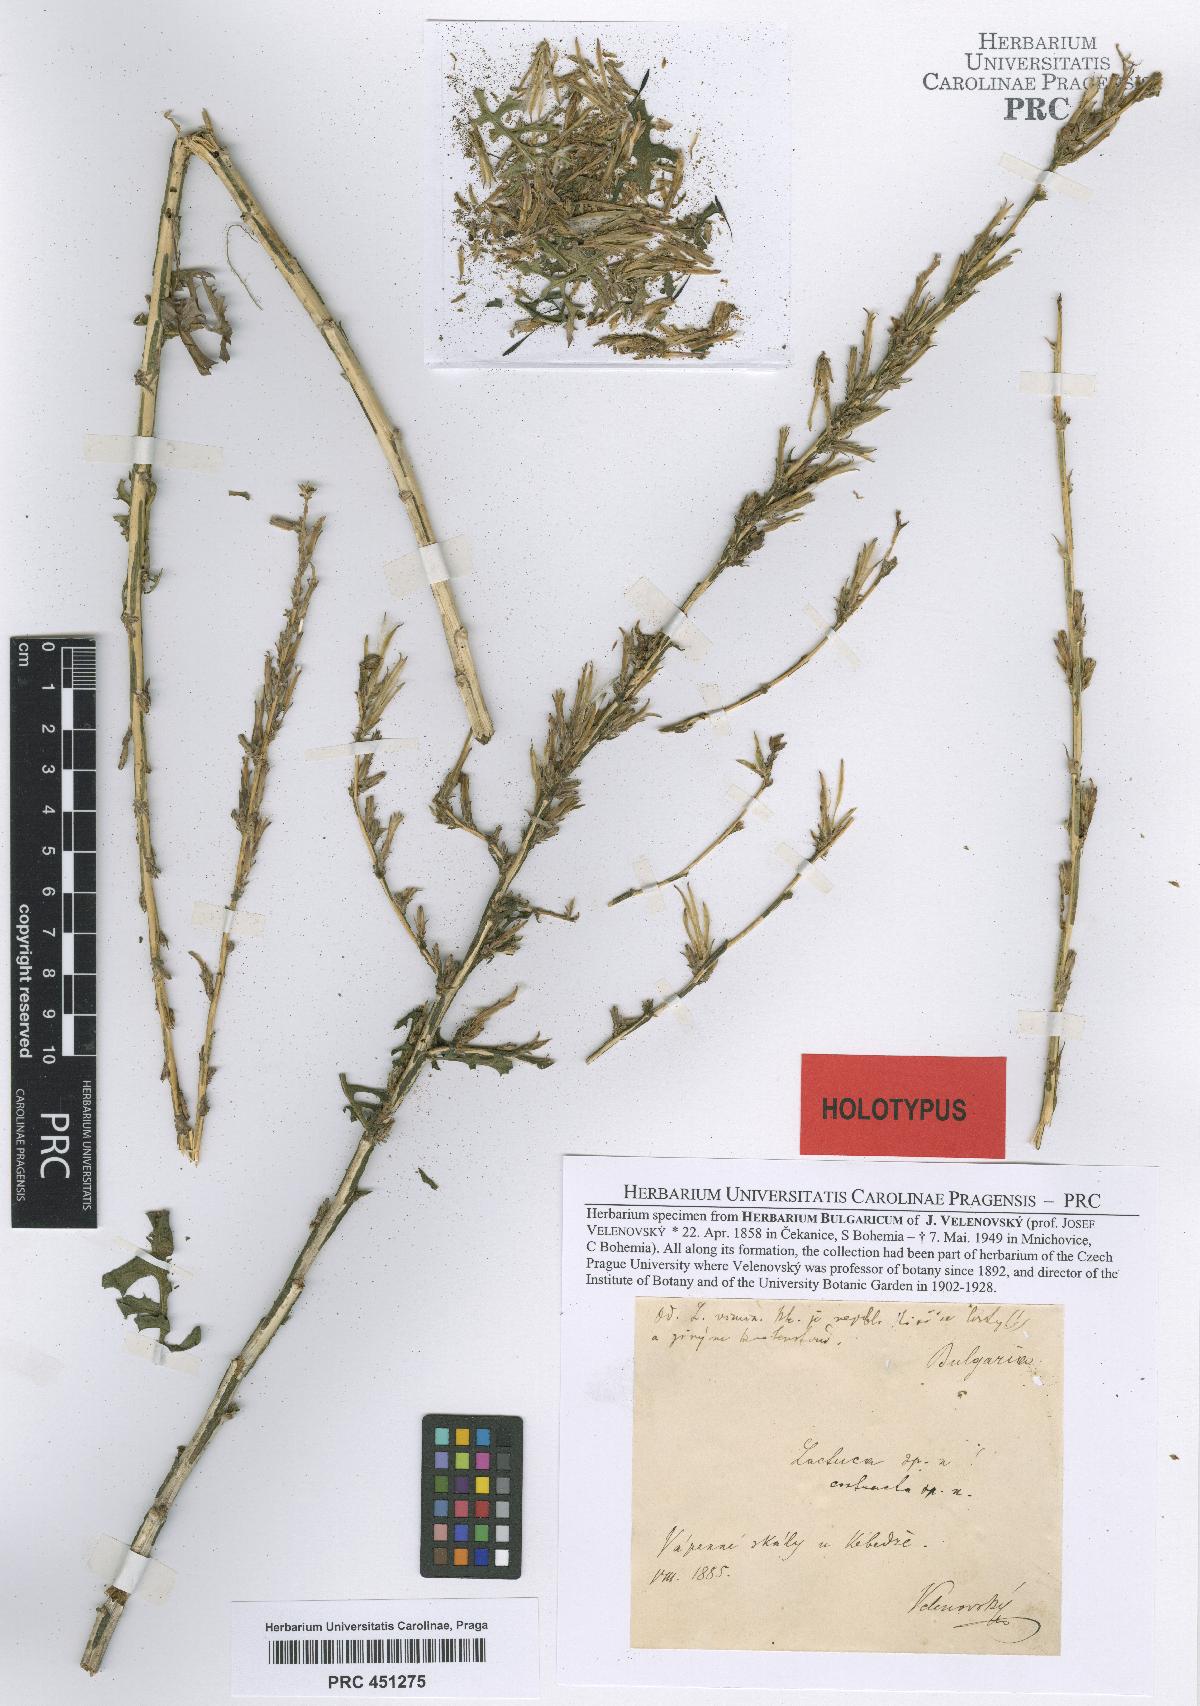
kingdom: Plantae
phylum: Tracheophyta
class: Magnoliopsida
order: Asterales
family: Asteraceae
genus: Lactuca
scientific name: Lactuca viminea
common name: Pliant lettuce
